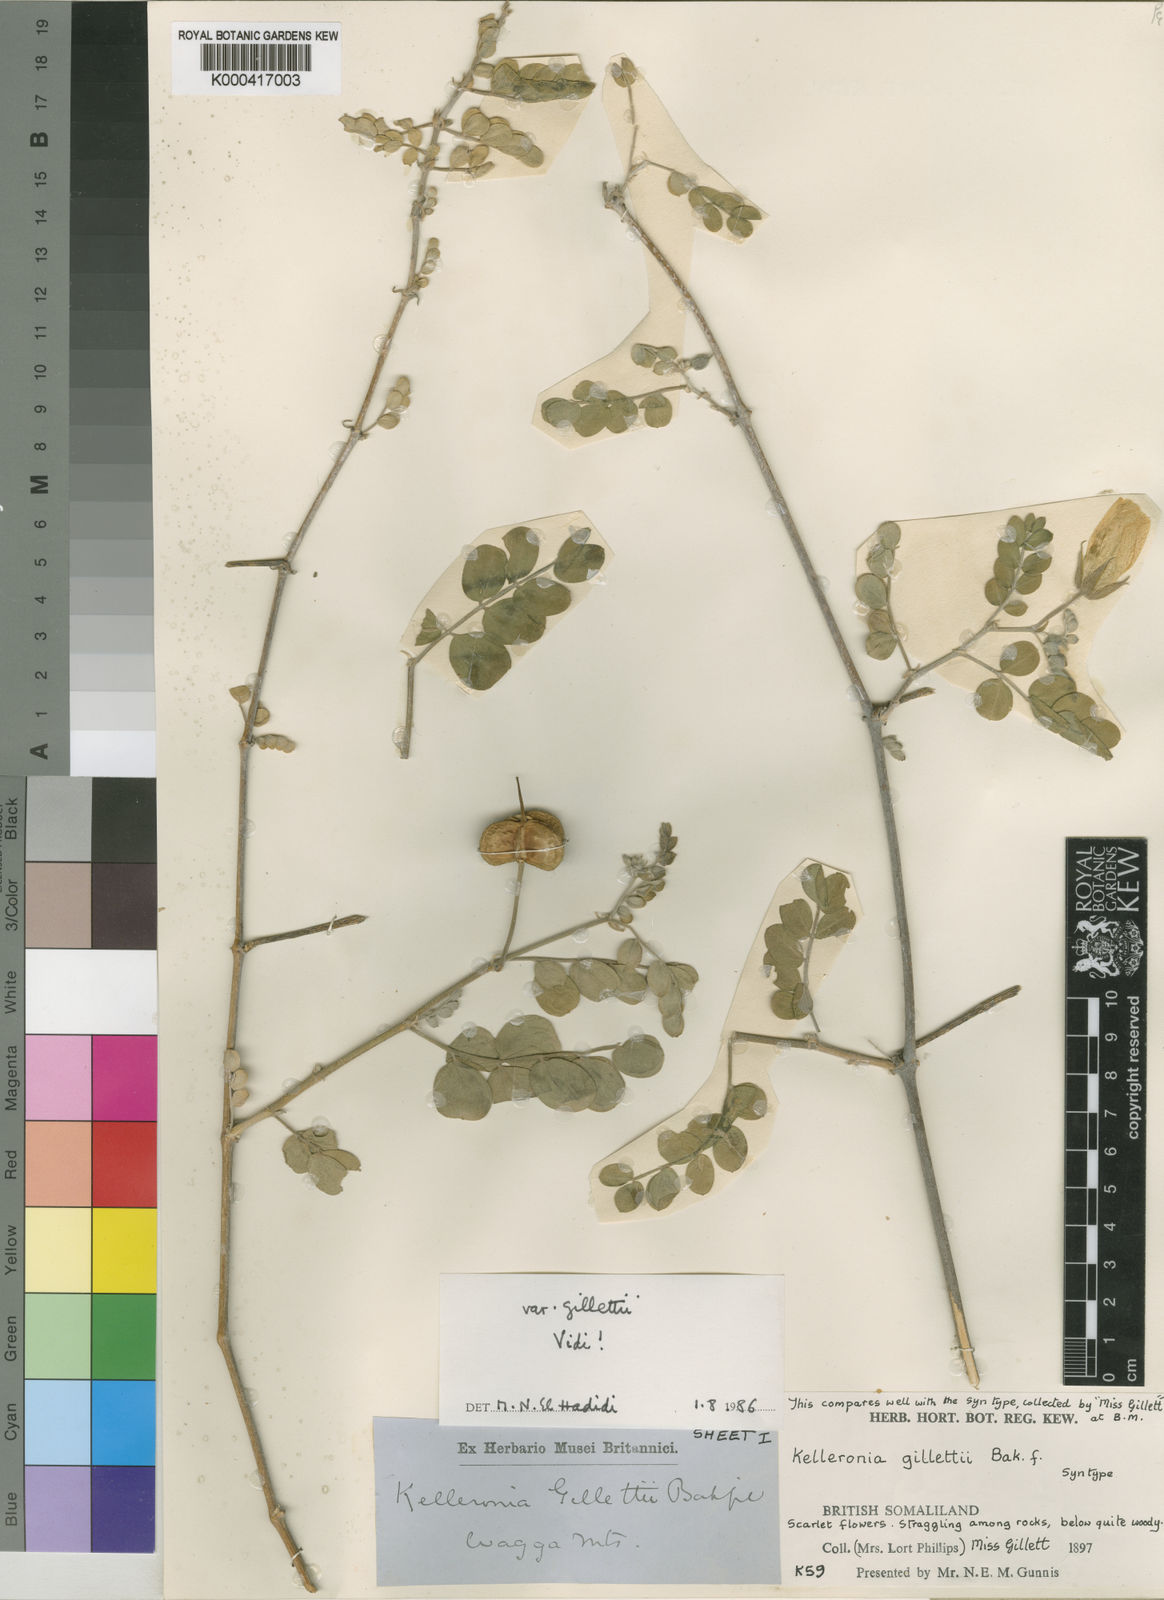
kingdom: Plantae
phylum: Tracheophyta
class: Magnoliopsida
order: Zygophyllales
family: Zygophyllaceae
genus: Kelleronia
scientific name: Kelleronia gillettiae
